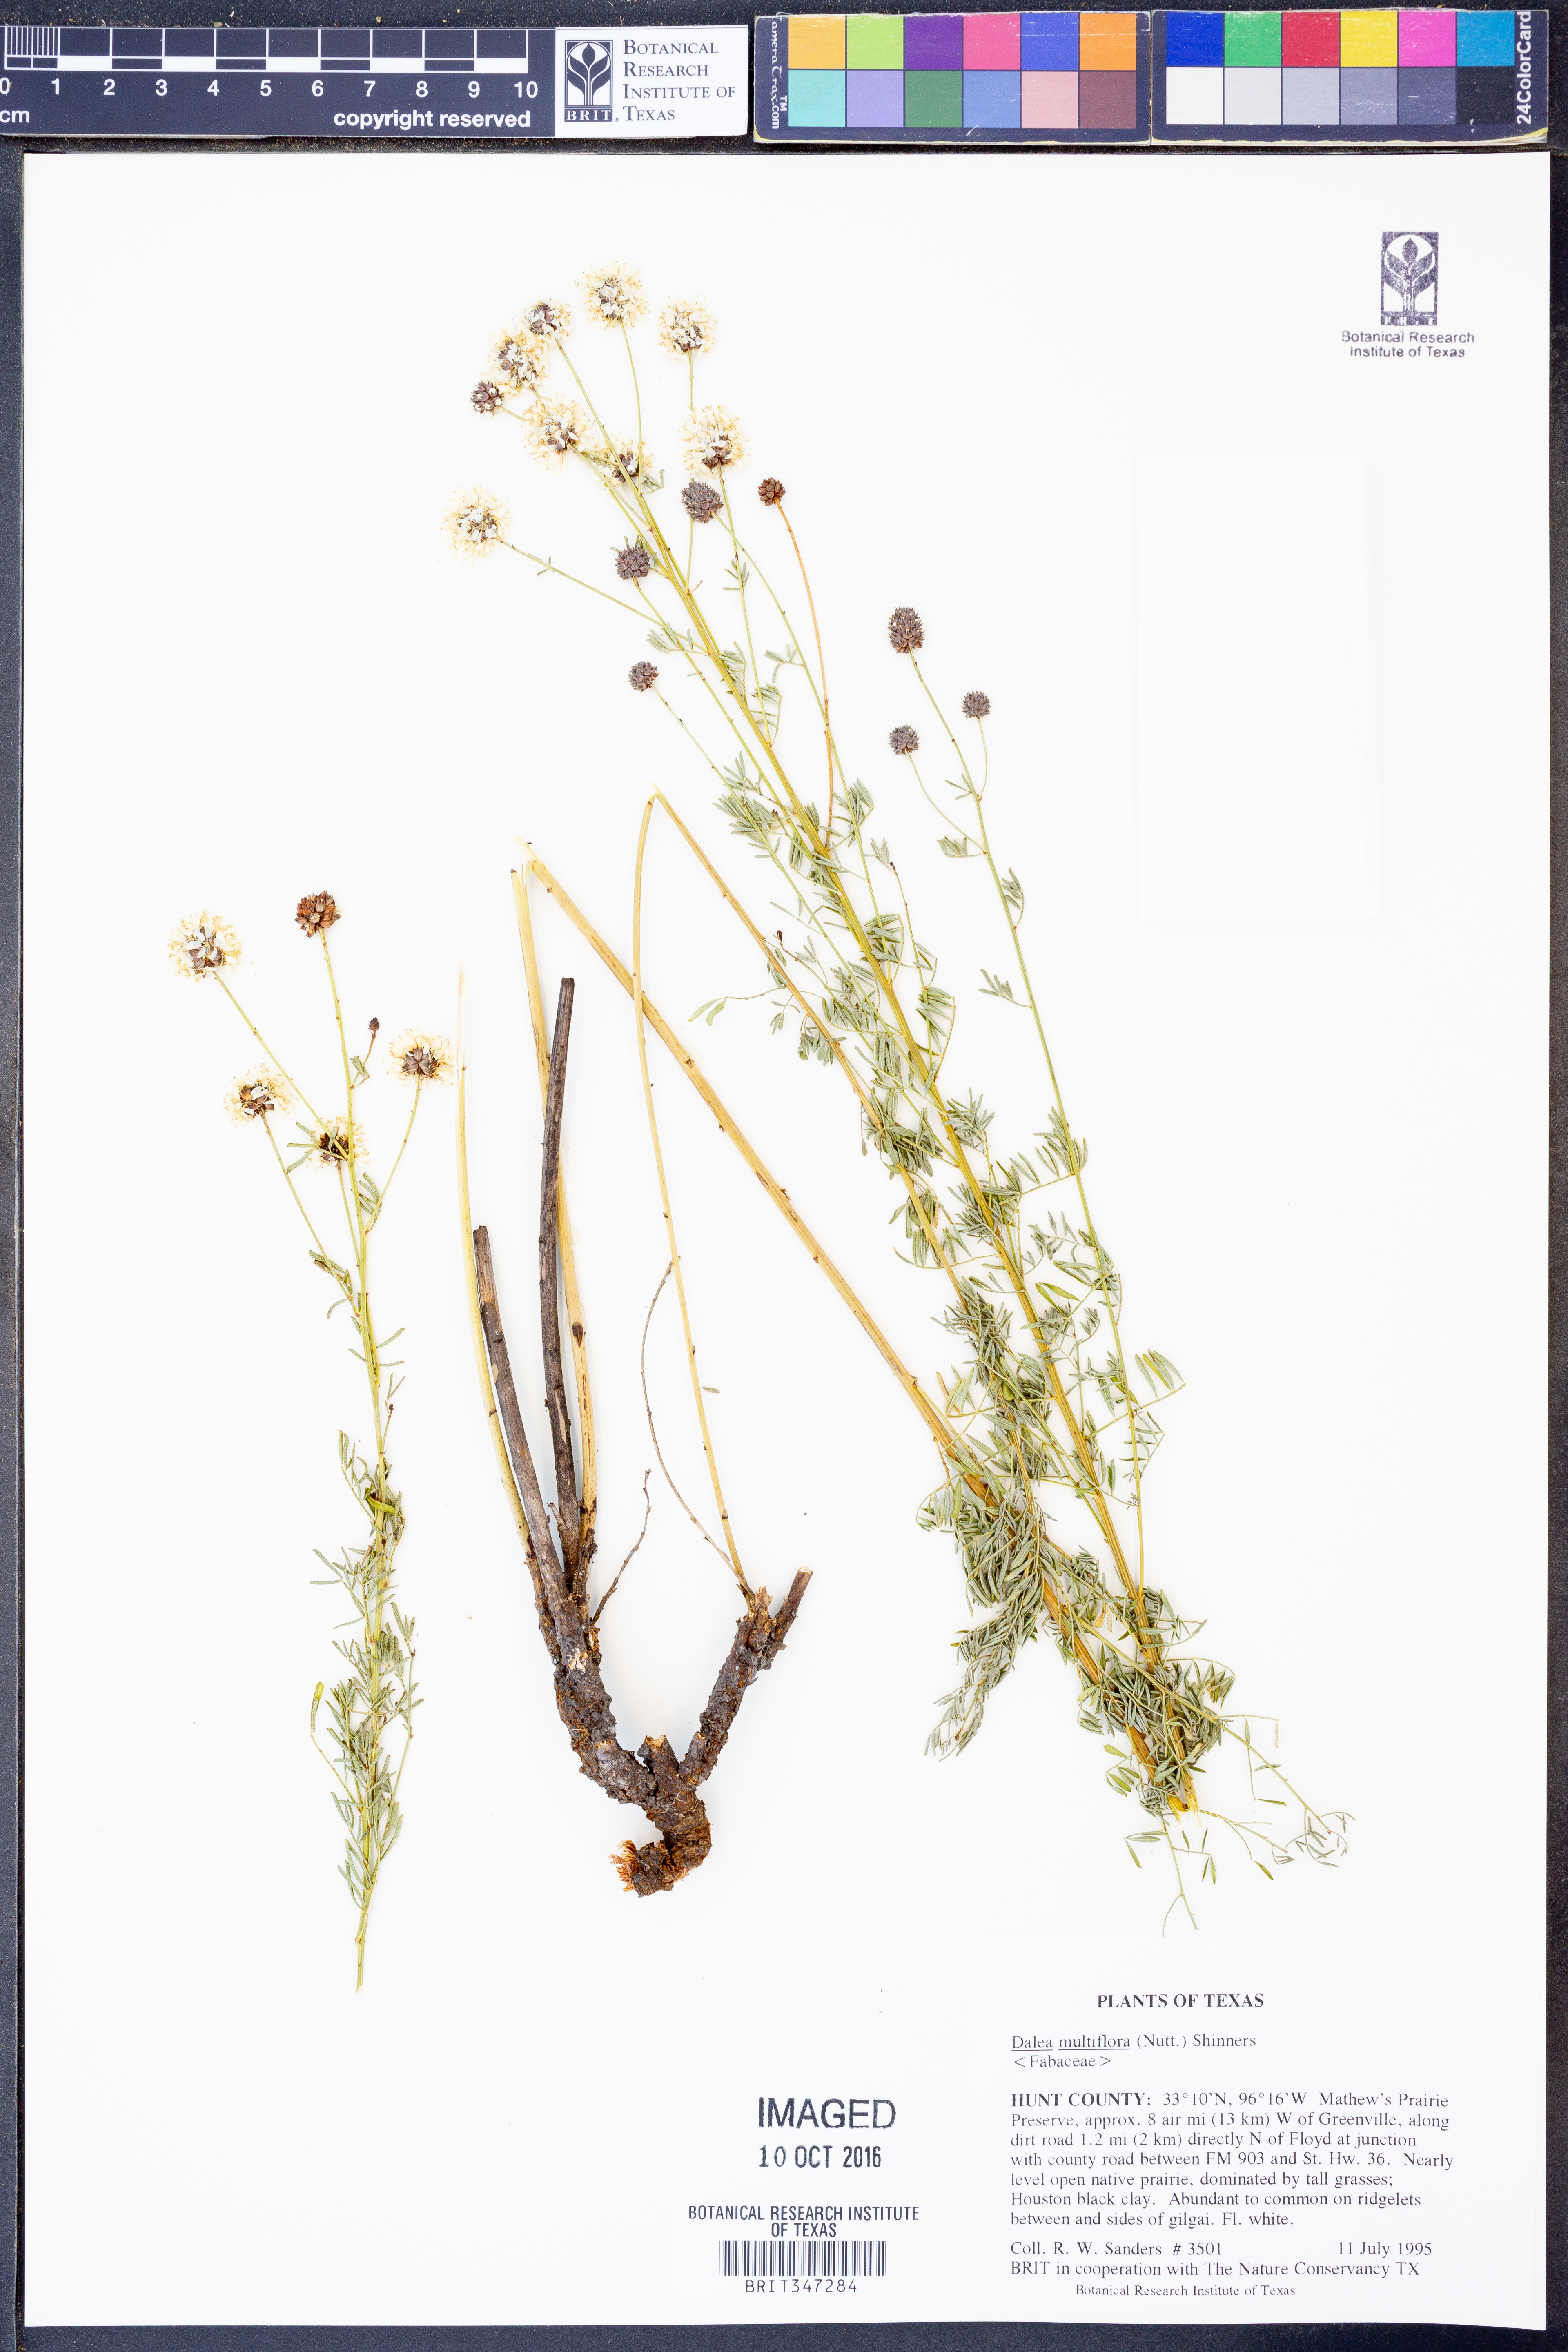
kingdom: Plantae
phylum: Tracheophyta
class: Magnoliopsida
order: Fabales
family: Fabaceae
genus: Dalea
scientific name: Dalea multiflora
